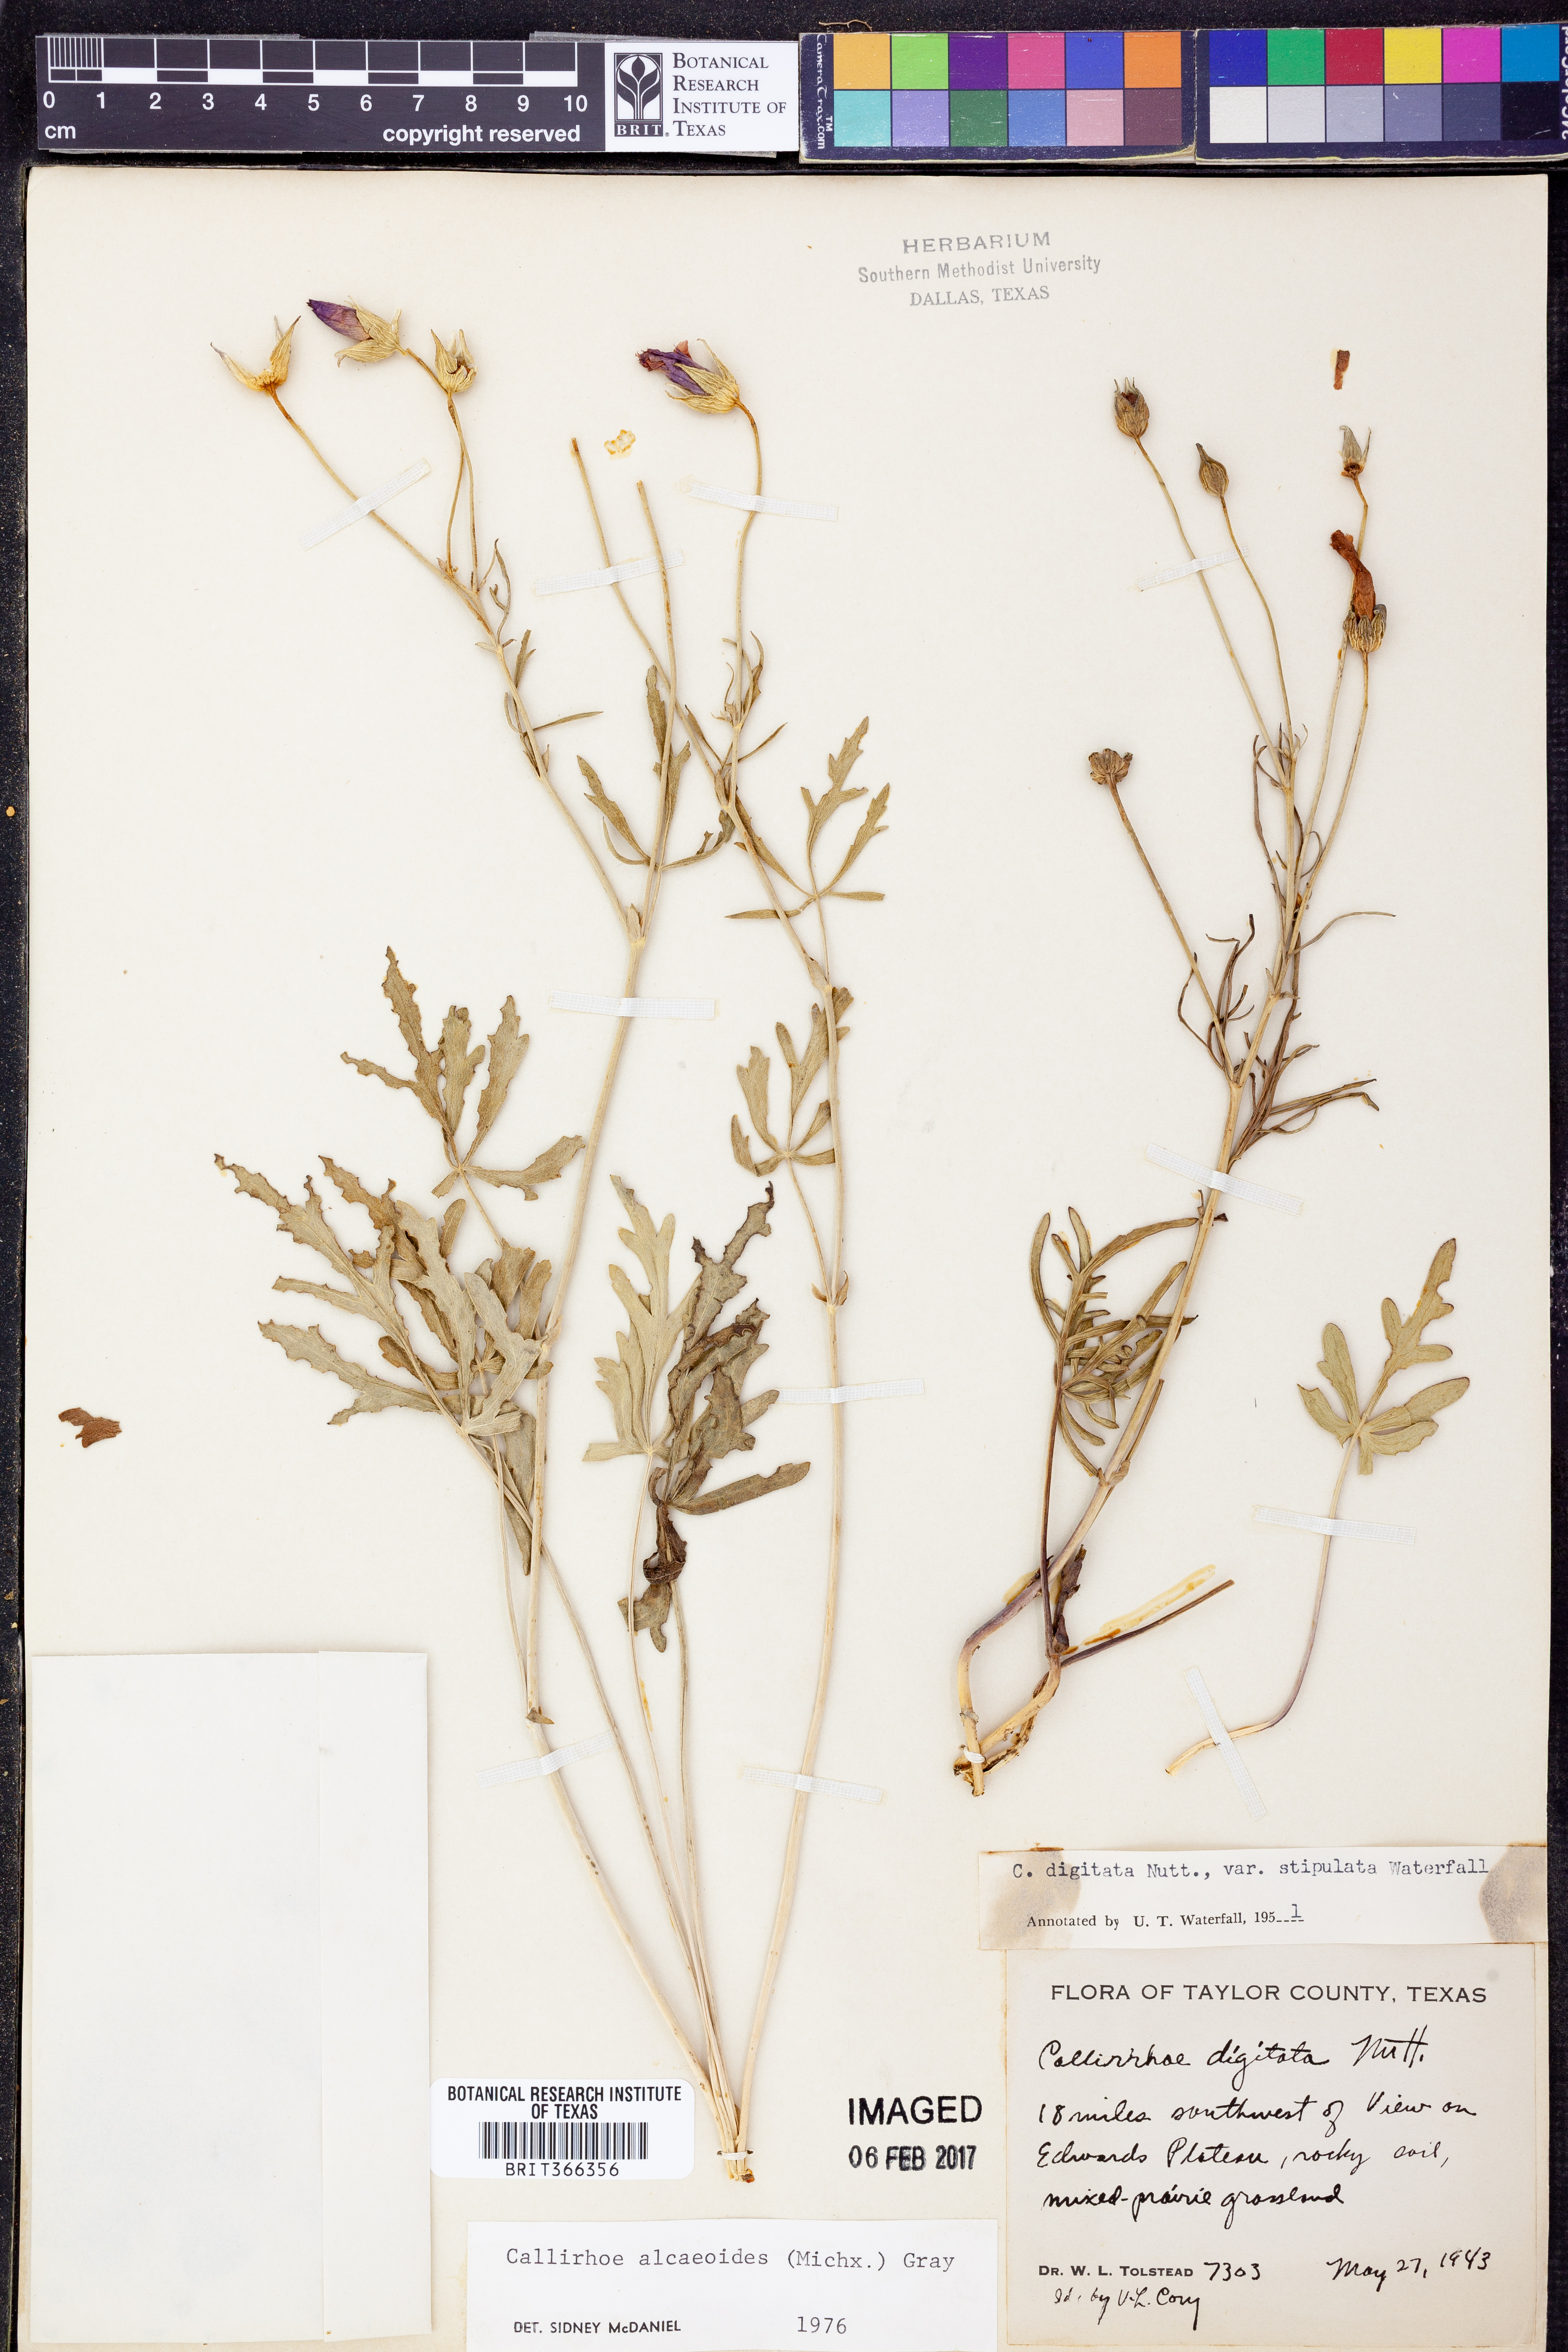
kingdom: Plantae
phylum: Tracheophyta
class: Magnoliopsida
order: Malvales
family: Malvaceae
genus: Callirhoe
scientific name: Callirhoe alcaeoides
